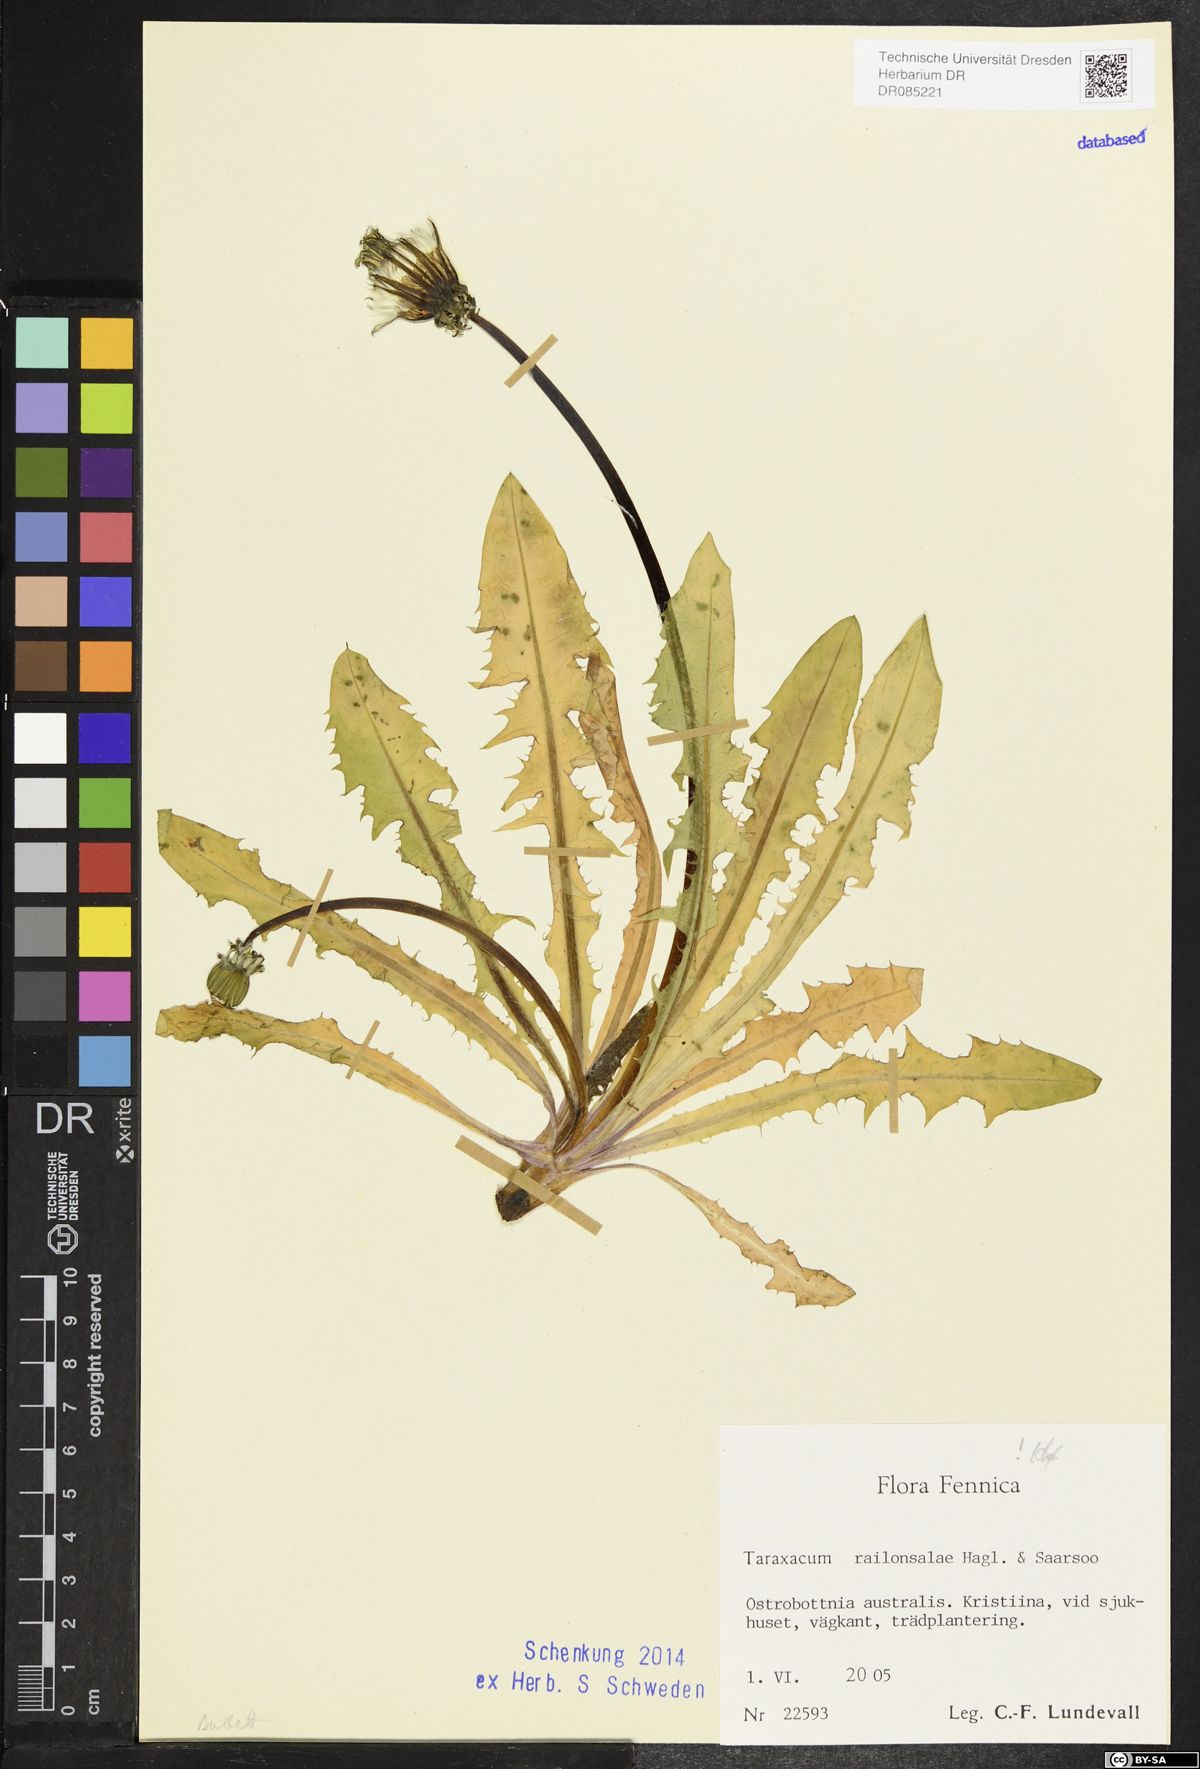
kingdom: Plantae
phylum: Tracheophyta
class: Magnoliopsida
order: Asterales
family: Asteraceae
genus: Taraxacum
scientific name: Taraxacum railonsalae
